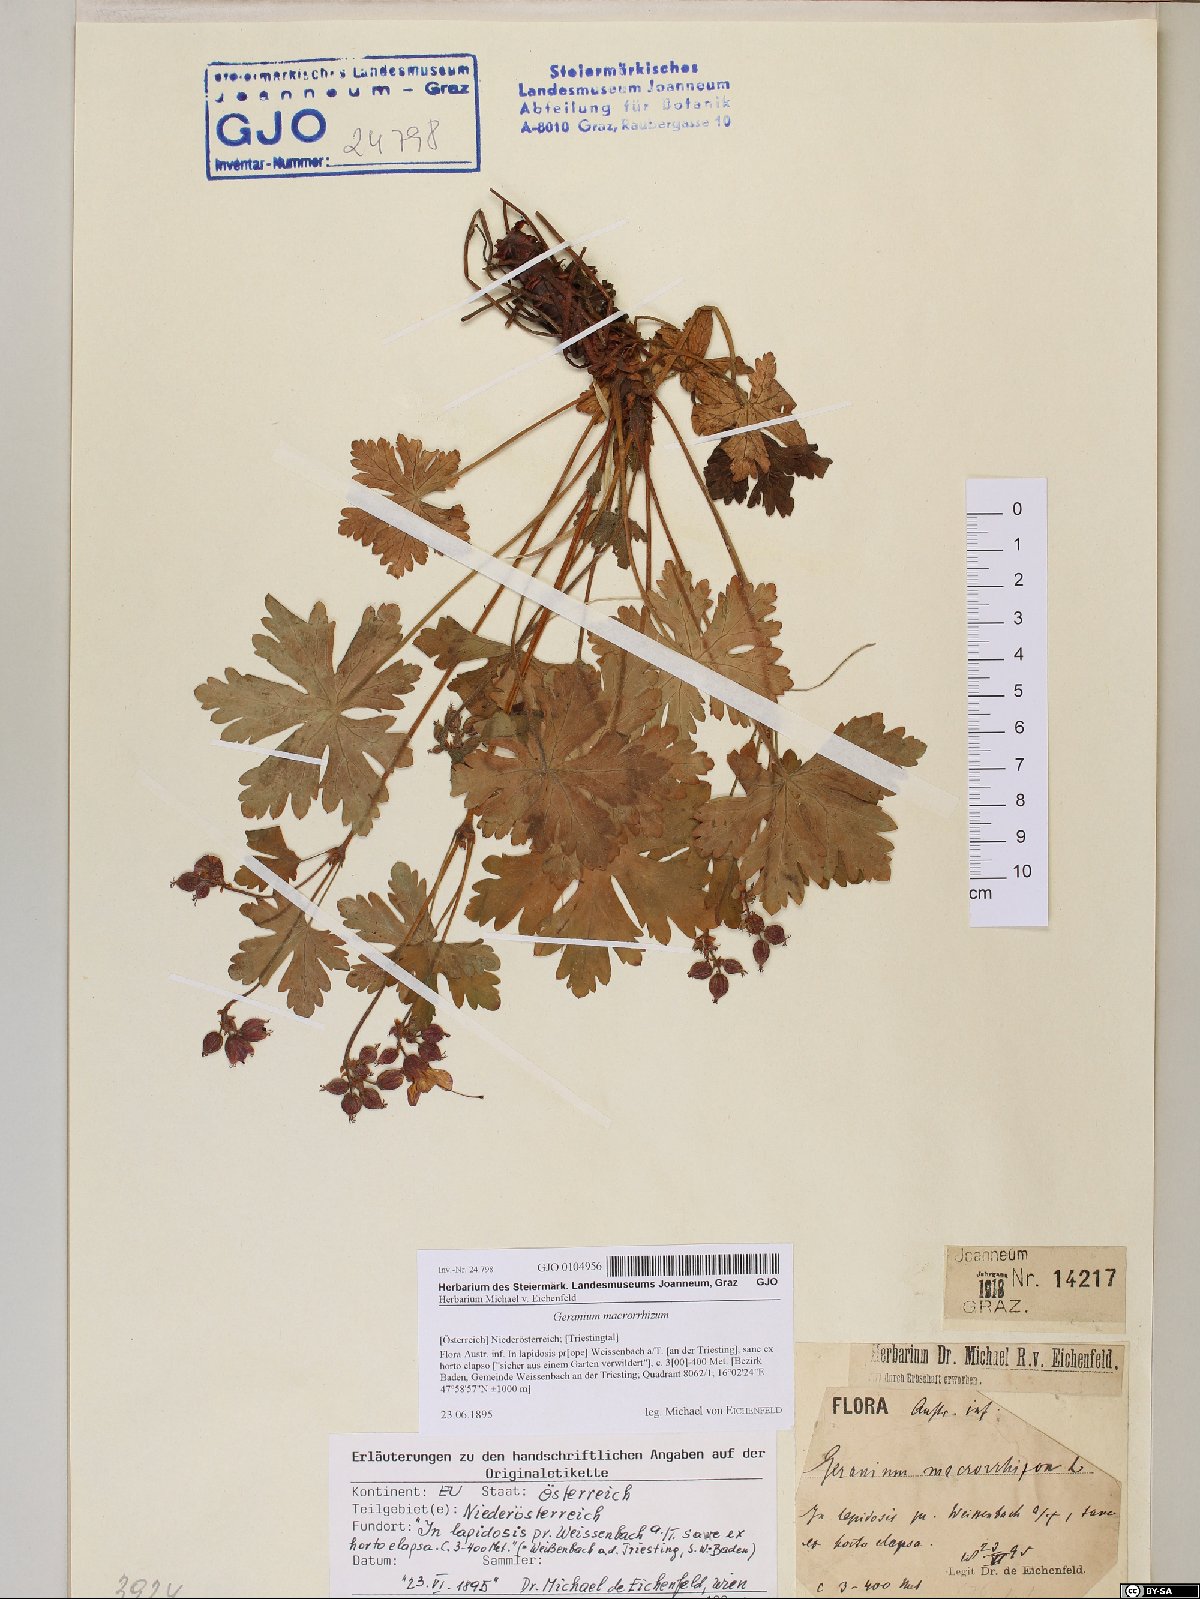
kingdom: Plantae
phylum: Tracheophyta
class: Magnoliopsida
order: Geraniales
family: Geraniaceae
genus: Geranium
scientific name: Geranium macrorrhizum
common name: Rock crane's-bill
